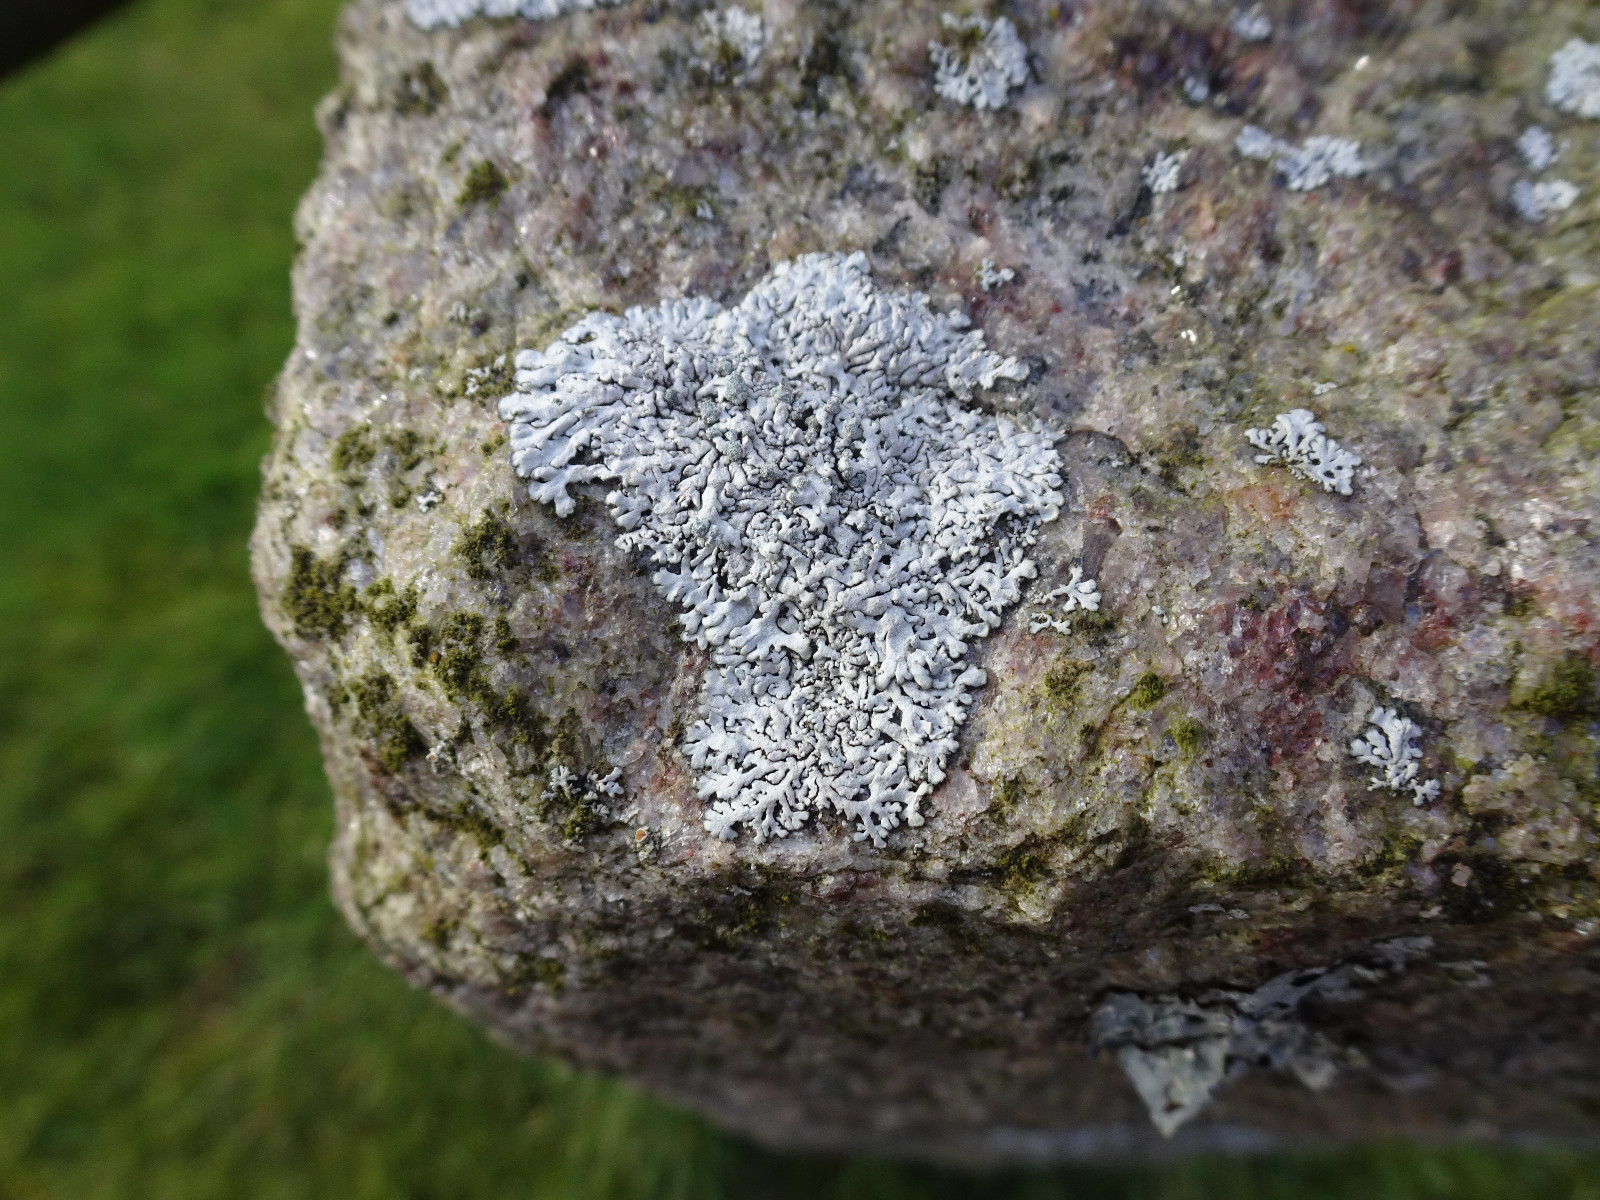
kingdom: Fungi
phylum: Ascomycota
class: Lecanoromycetes
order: Caliciales
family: Physciaceae
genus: Physcia
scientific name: Physcia caesia
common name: blågrå rosetlav
